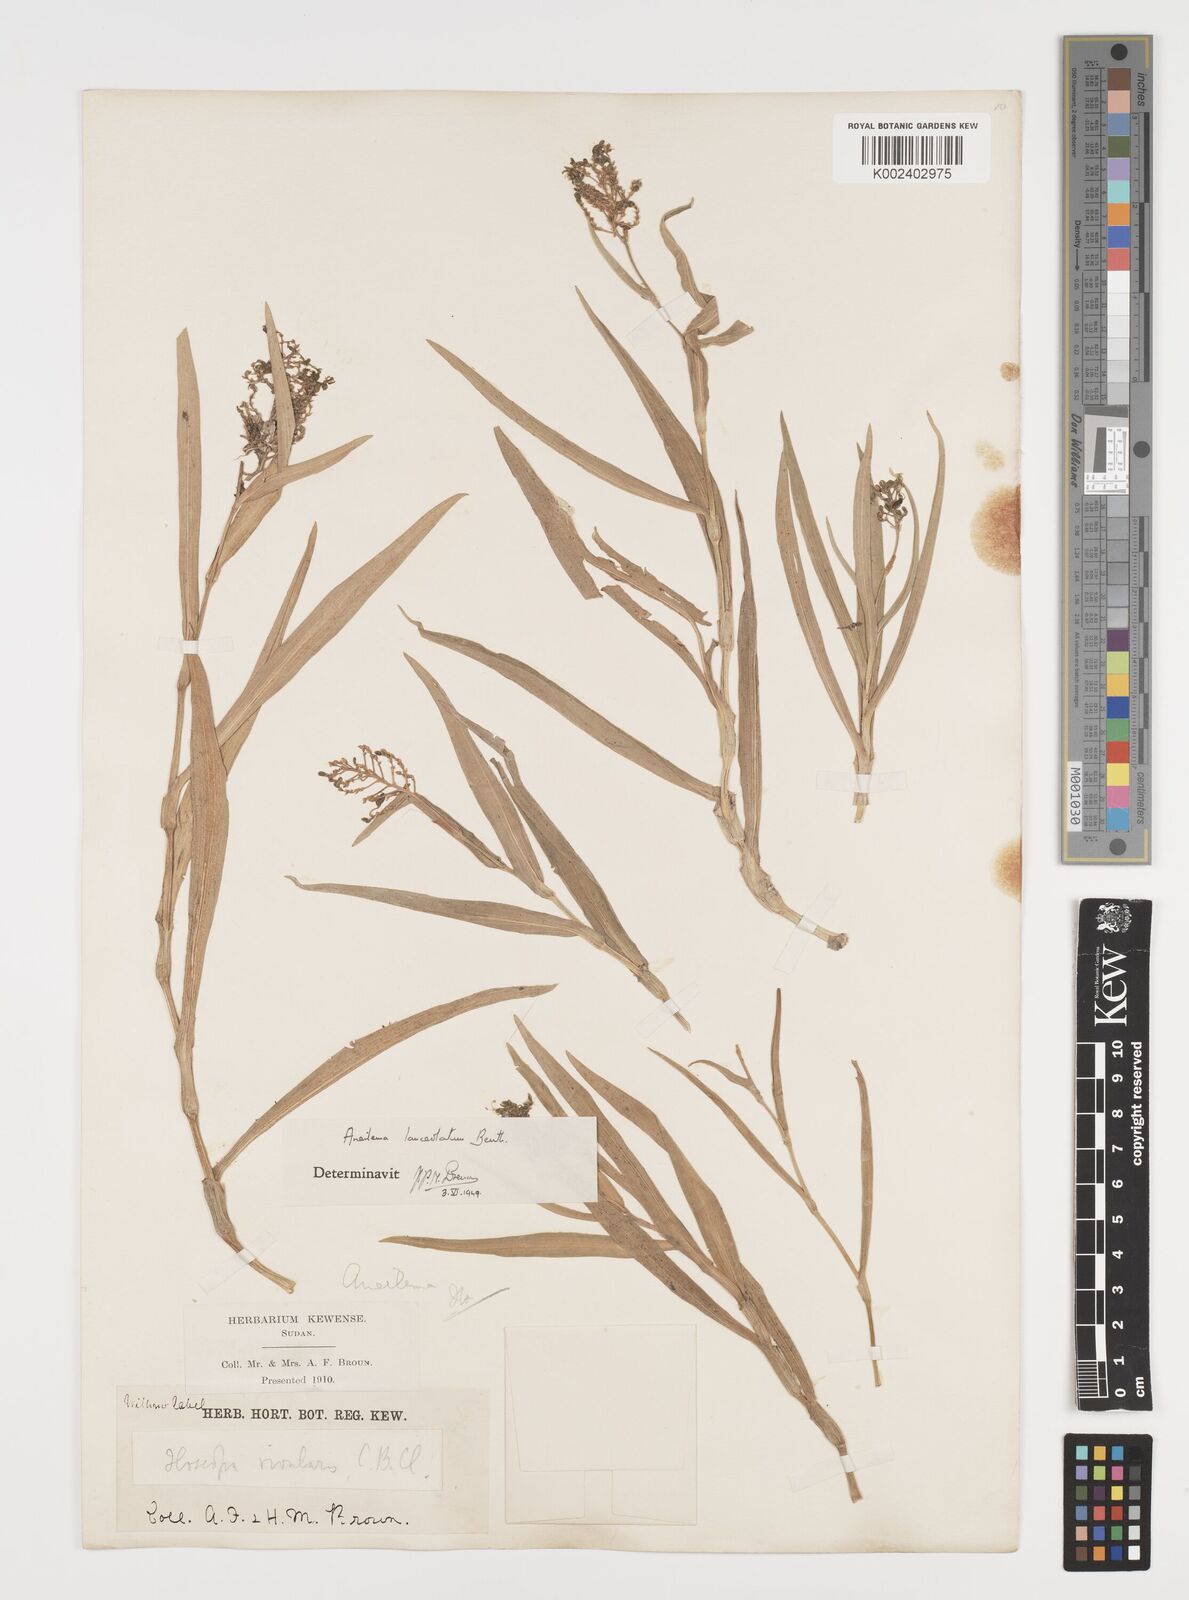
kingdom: Plantae
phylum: Tracheophyta
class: Liliopsida
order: Commelinales
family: Commelinaceae
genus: Aneilema
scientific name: Aneilema lanceolatum
